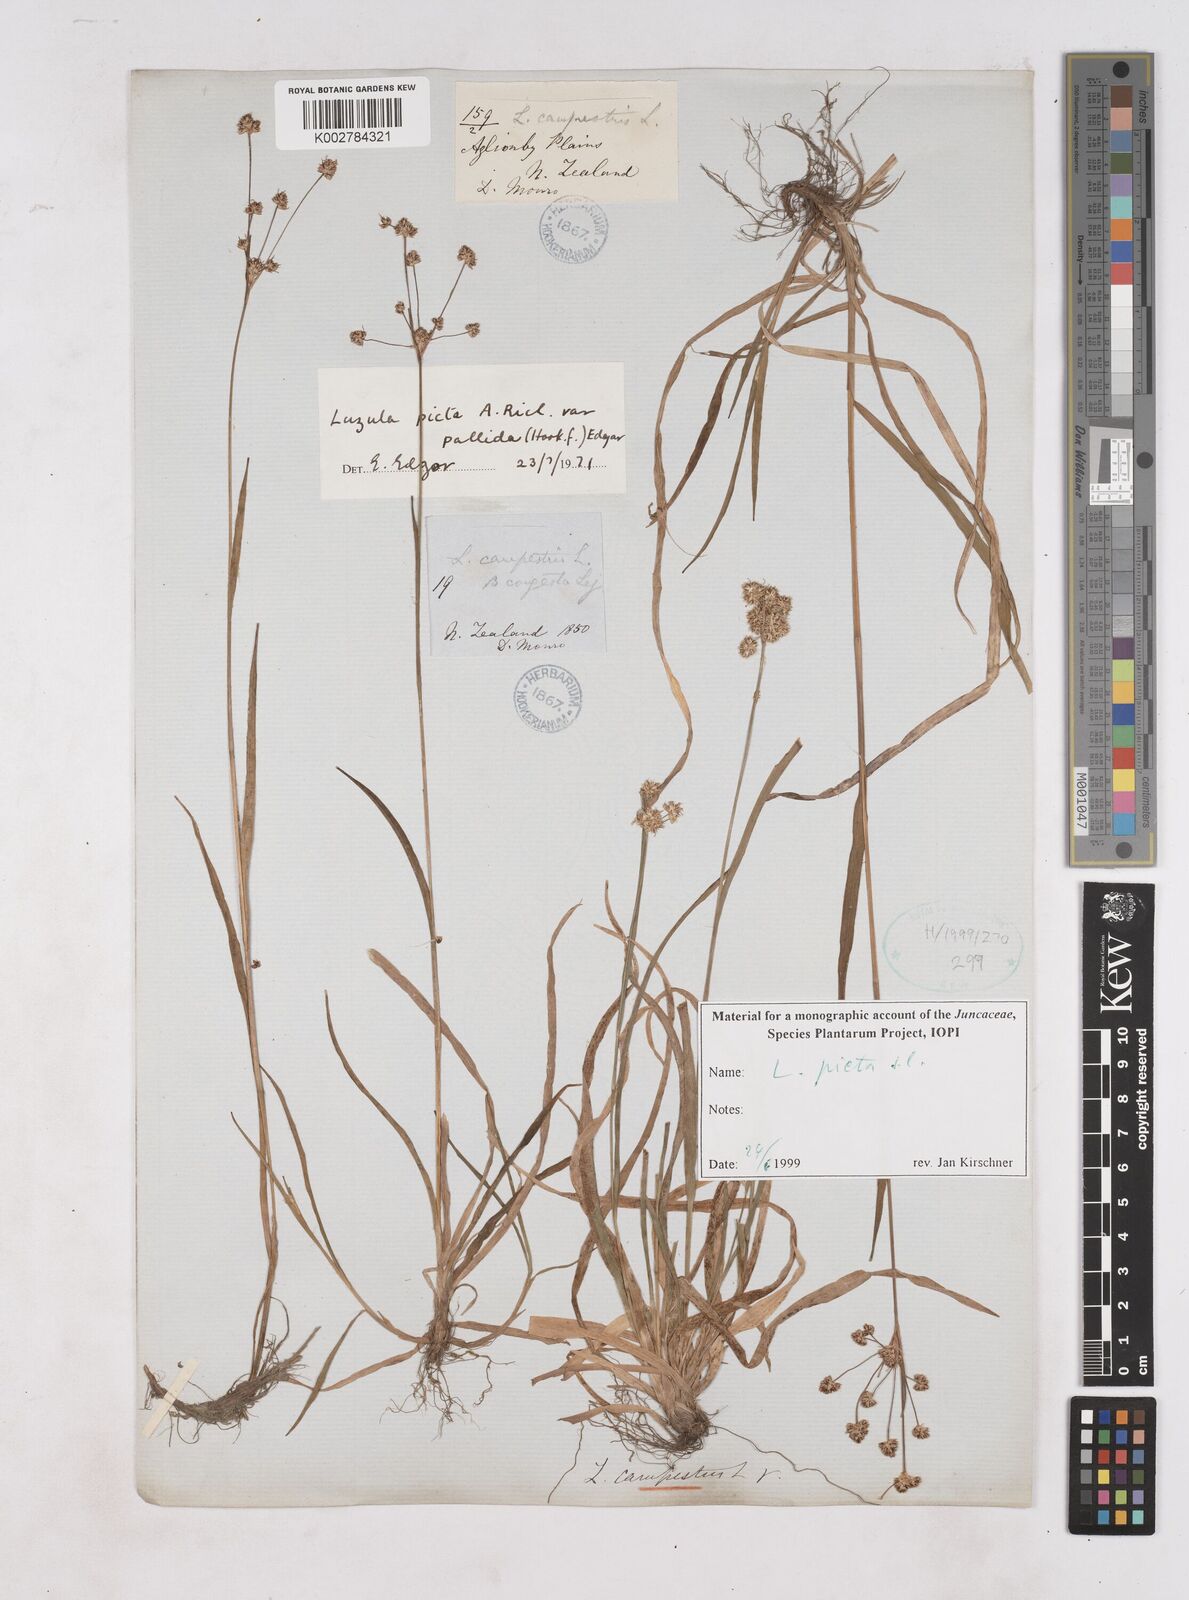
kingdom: Plantae
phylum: Tracheophyta
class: Liliopsida
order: Poales
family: Juncaceae
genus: Luzula
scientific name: Luzula picta
